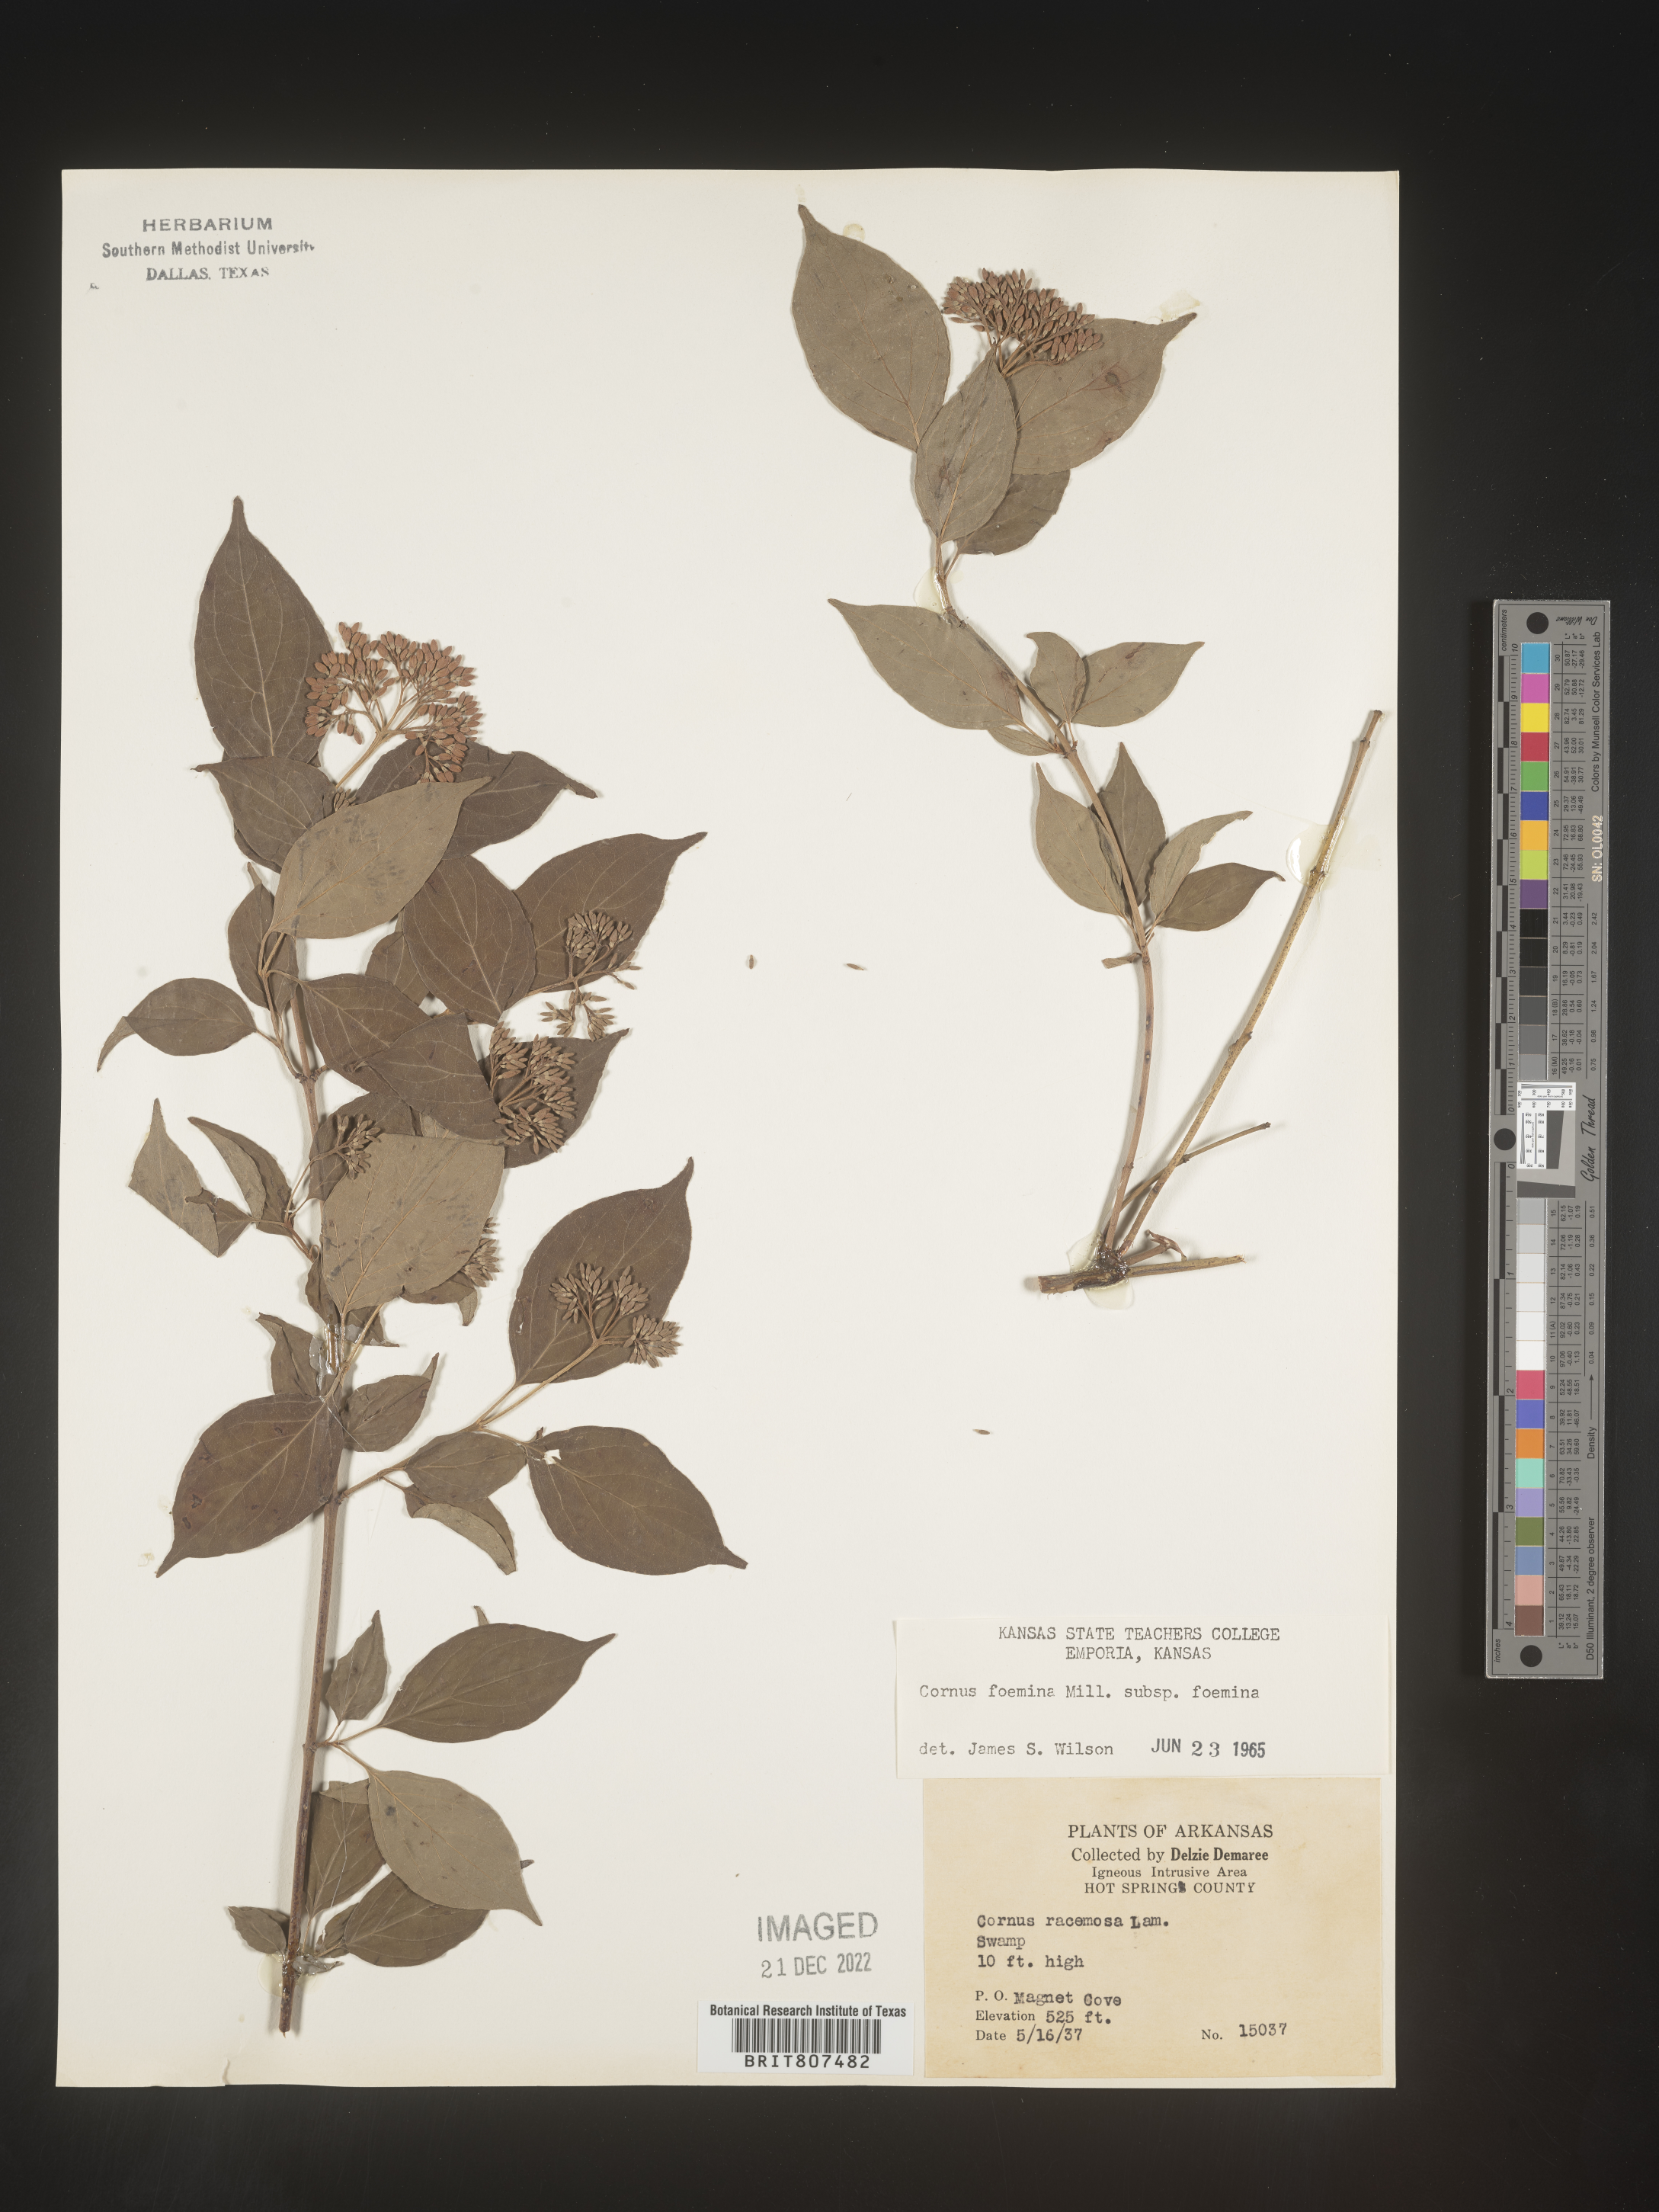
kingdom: Plantae
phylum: Tracheophyta
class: Magnoliopsida
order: Cornales
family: Cornaceae
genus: Cornus
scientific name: Cornus foemina
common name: Swamp dogwood
